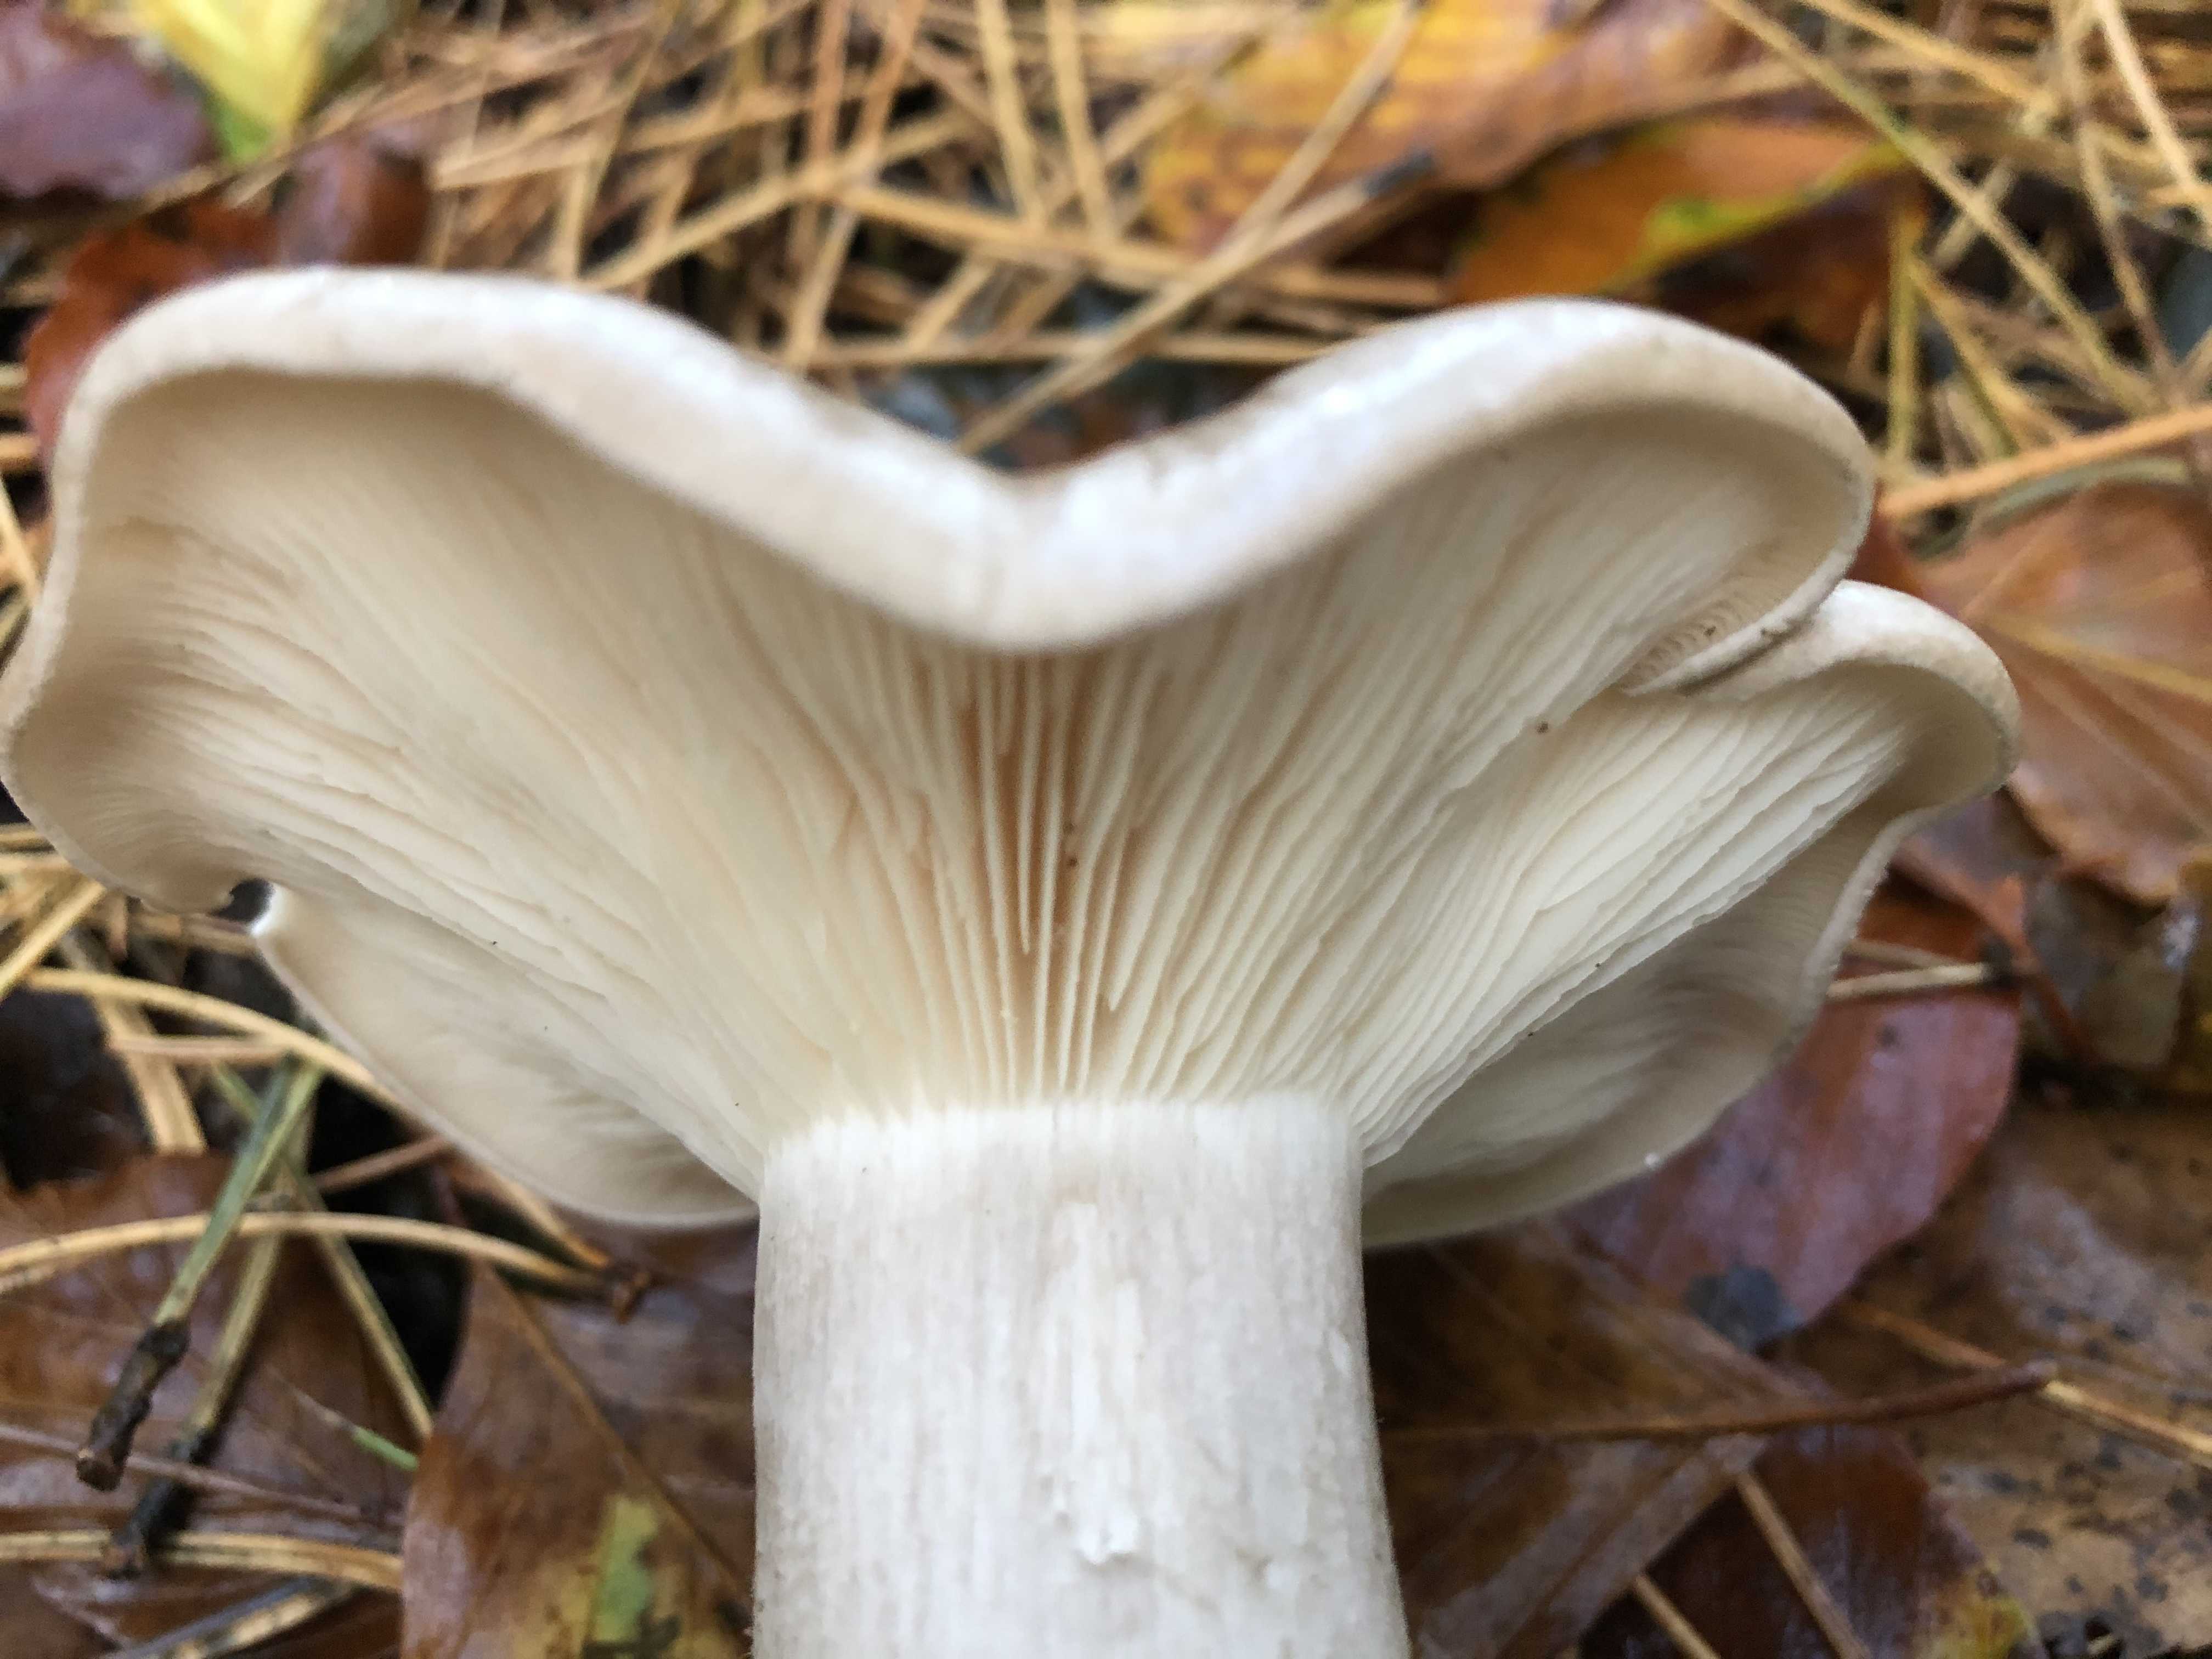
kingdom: Fungi
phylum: Basidiomycota
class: Agaricomycetes
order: Agaricales
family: Tricholomataceae
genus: Clitocybe
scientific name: Clitocybe nebularis
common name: tåge-tragthat
